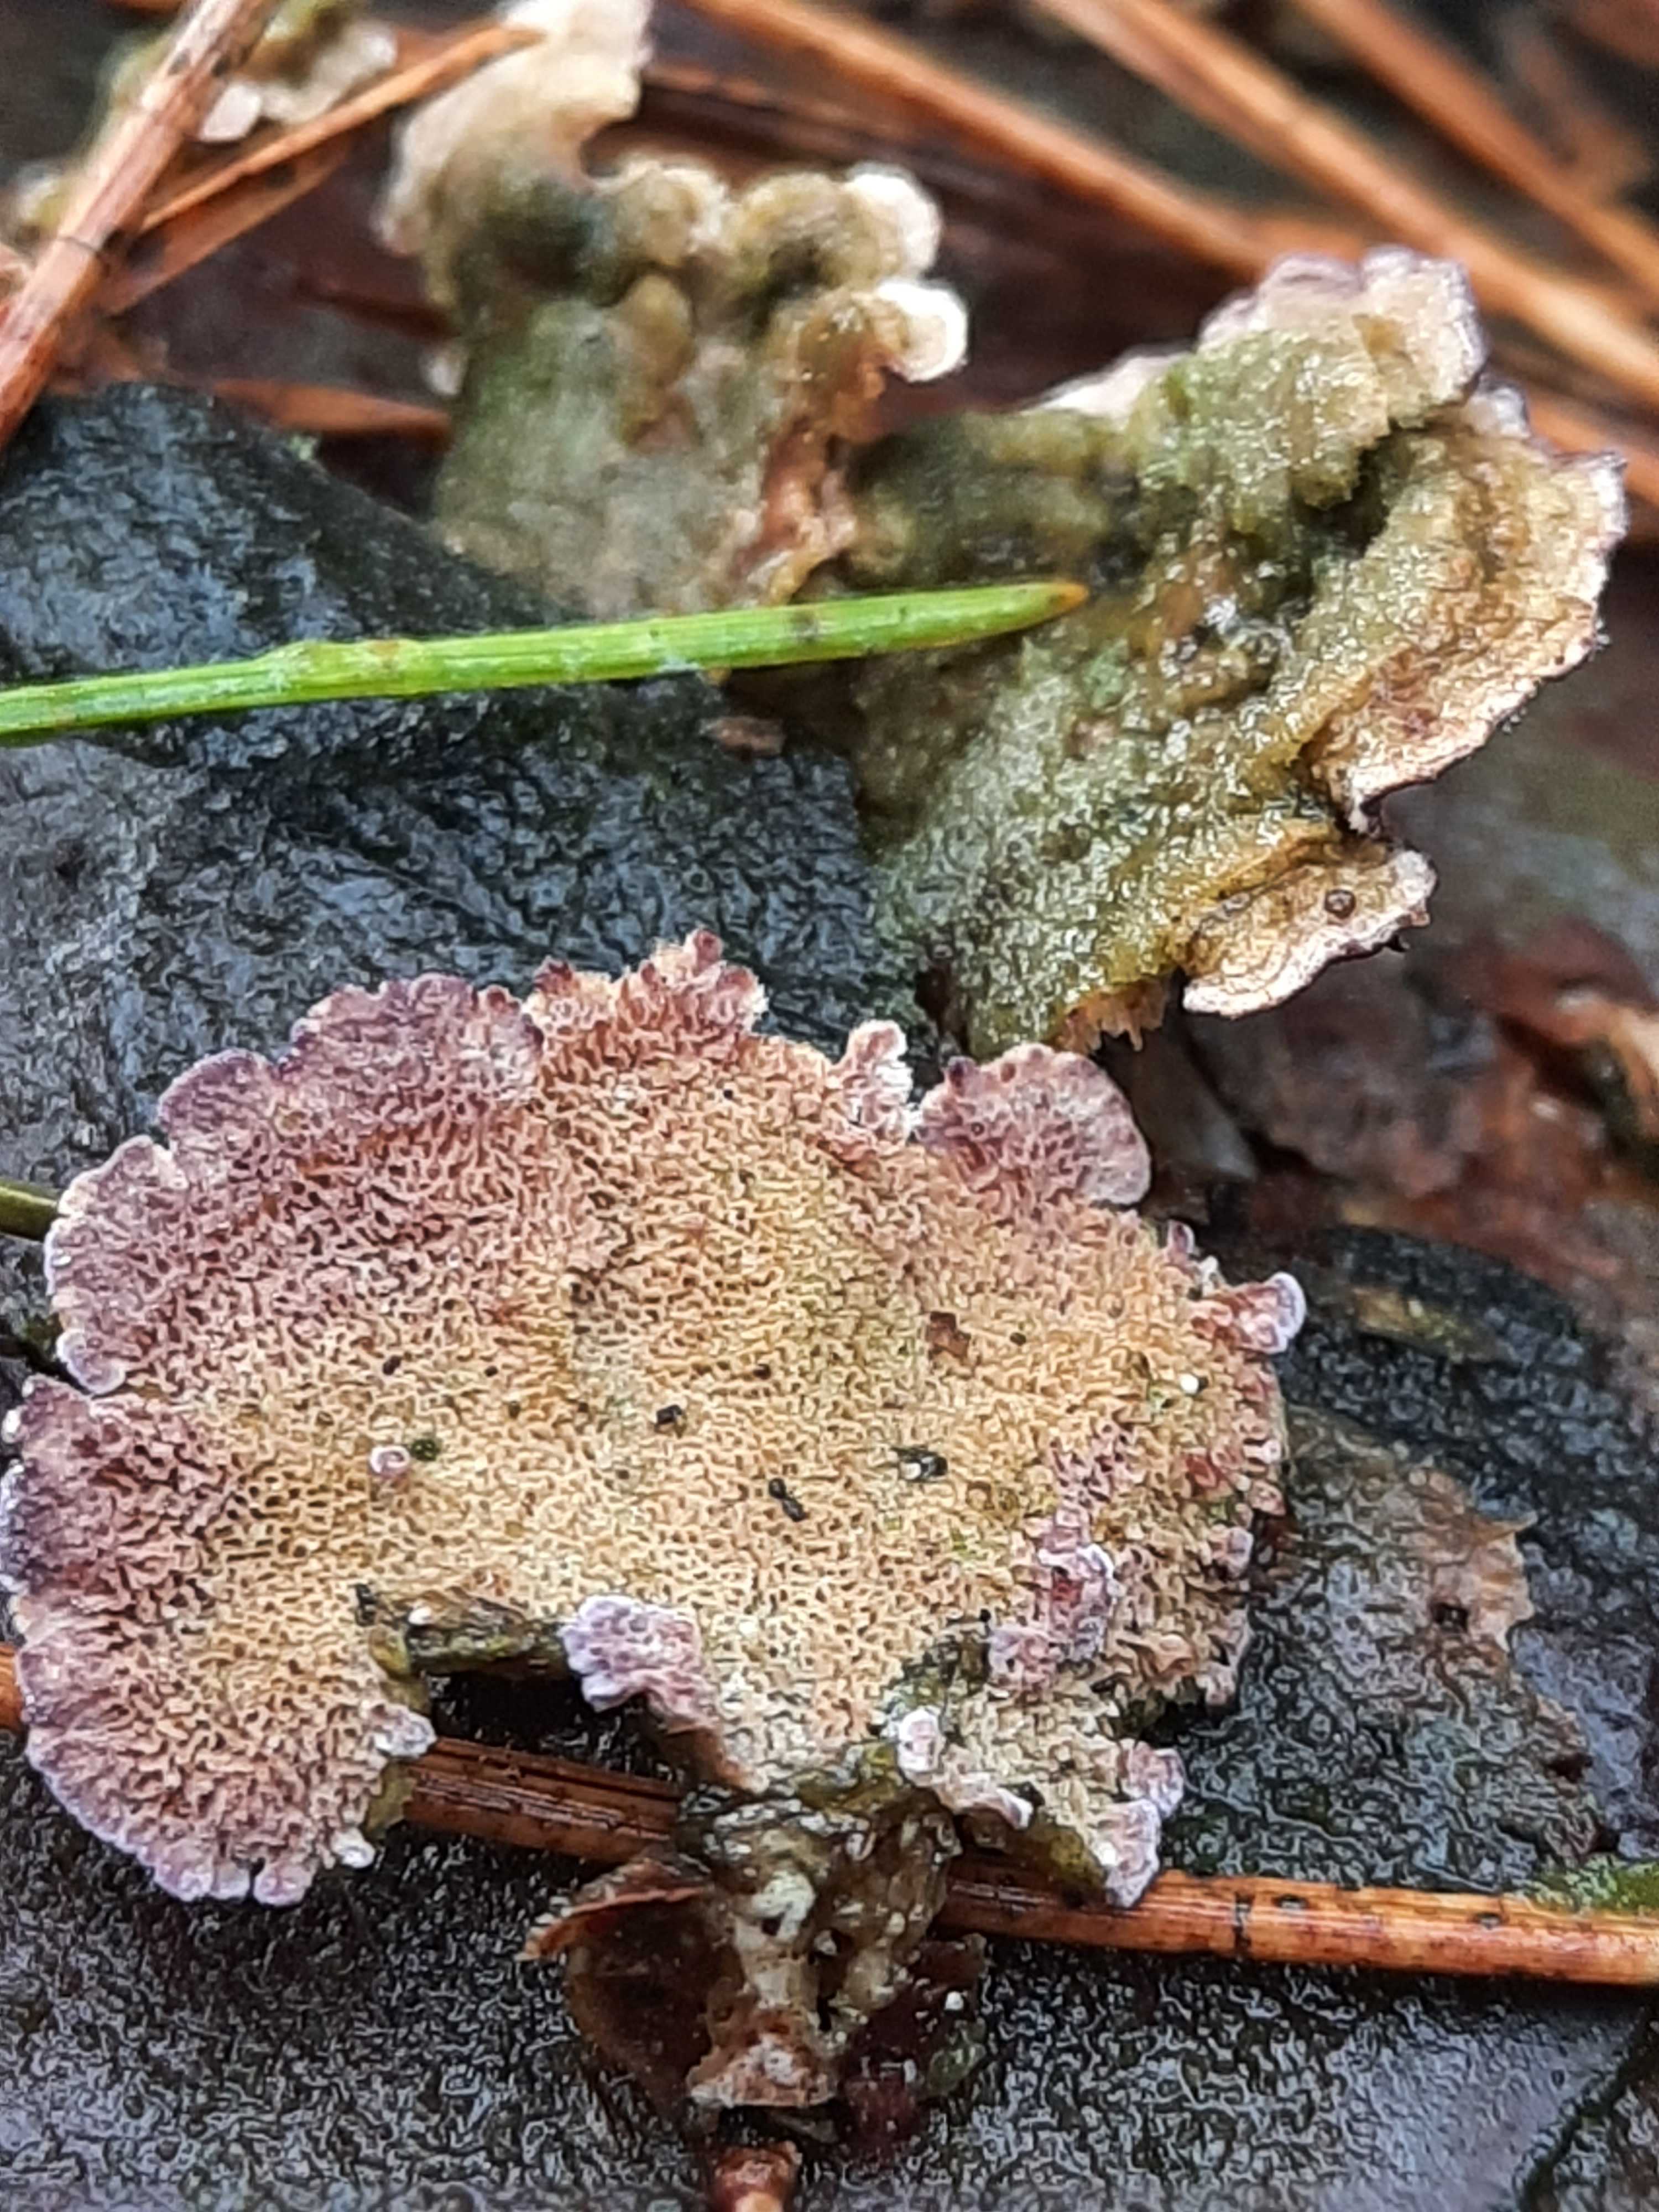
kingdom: Fungi
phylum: Basidiomycota
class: Agaricomycetes
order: Hymenochaetales
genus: Trichaptum
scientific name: Trichaptum abietinum
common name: almindelig violporesvamp
